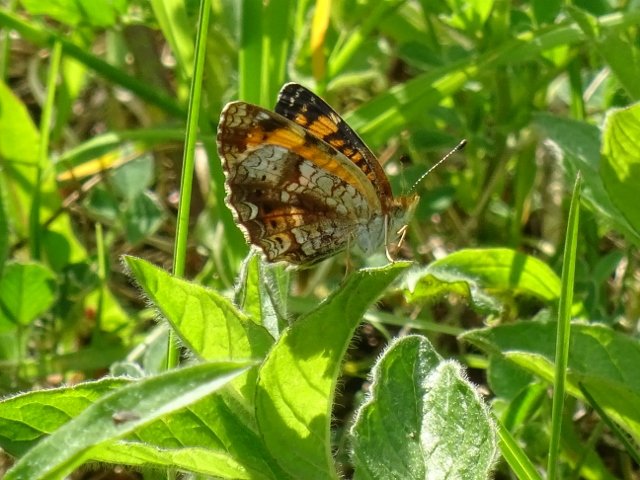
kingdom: Animalia
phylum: Arthropoda
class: Insecta
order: Lepidoptera
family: Nymphalidae
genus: Phyciodes
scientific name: Phyciodes tharos
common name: Pearl Crescent
